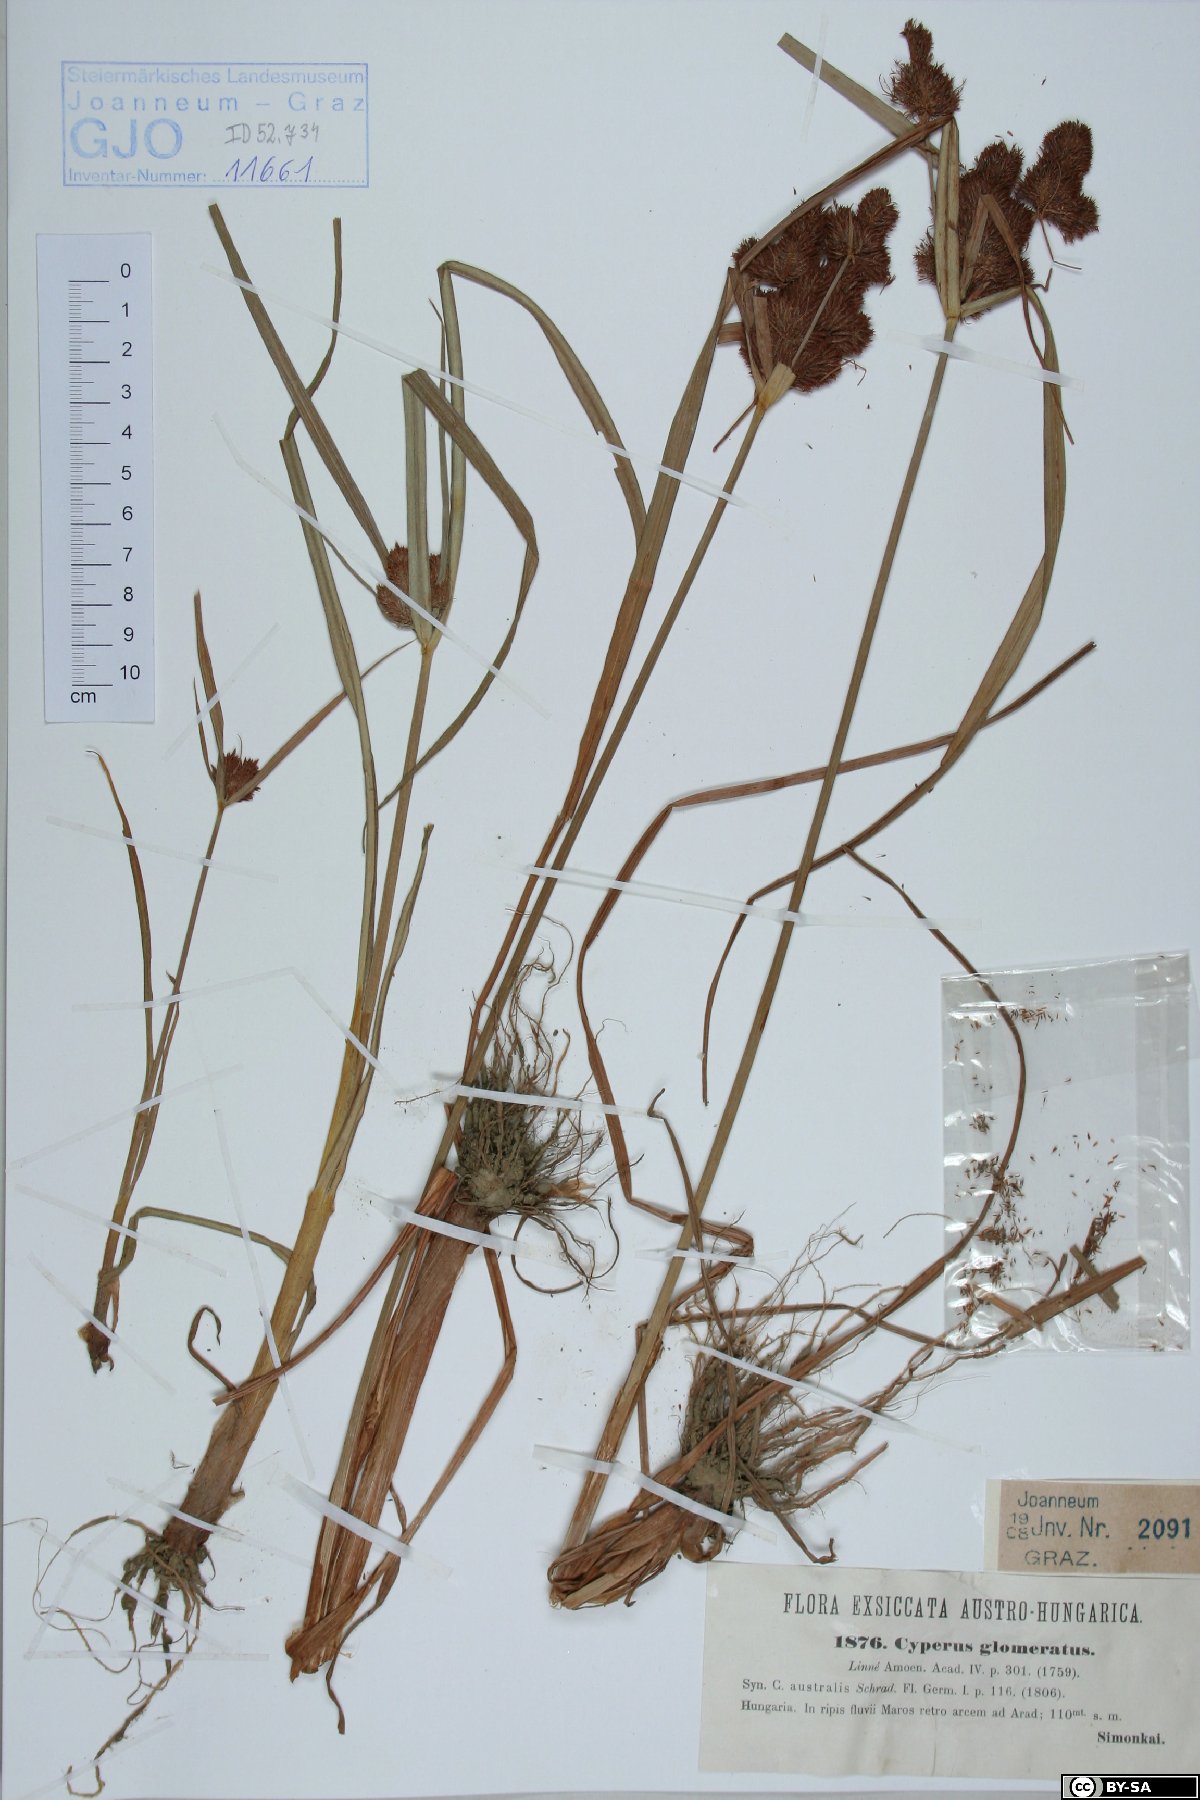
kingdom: Plantae
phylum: Tracheophyta
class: Liliopsida
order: Poales
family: Cyperaceae
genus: Cyperus
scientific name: Cyperus glomeratus
